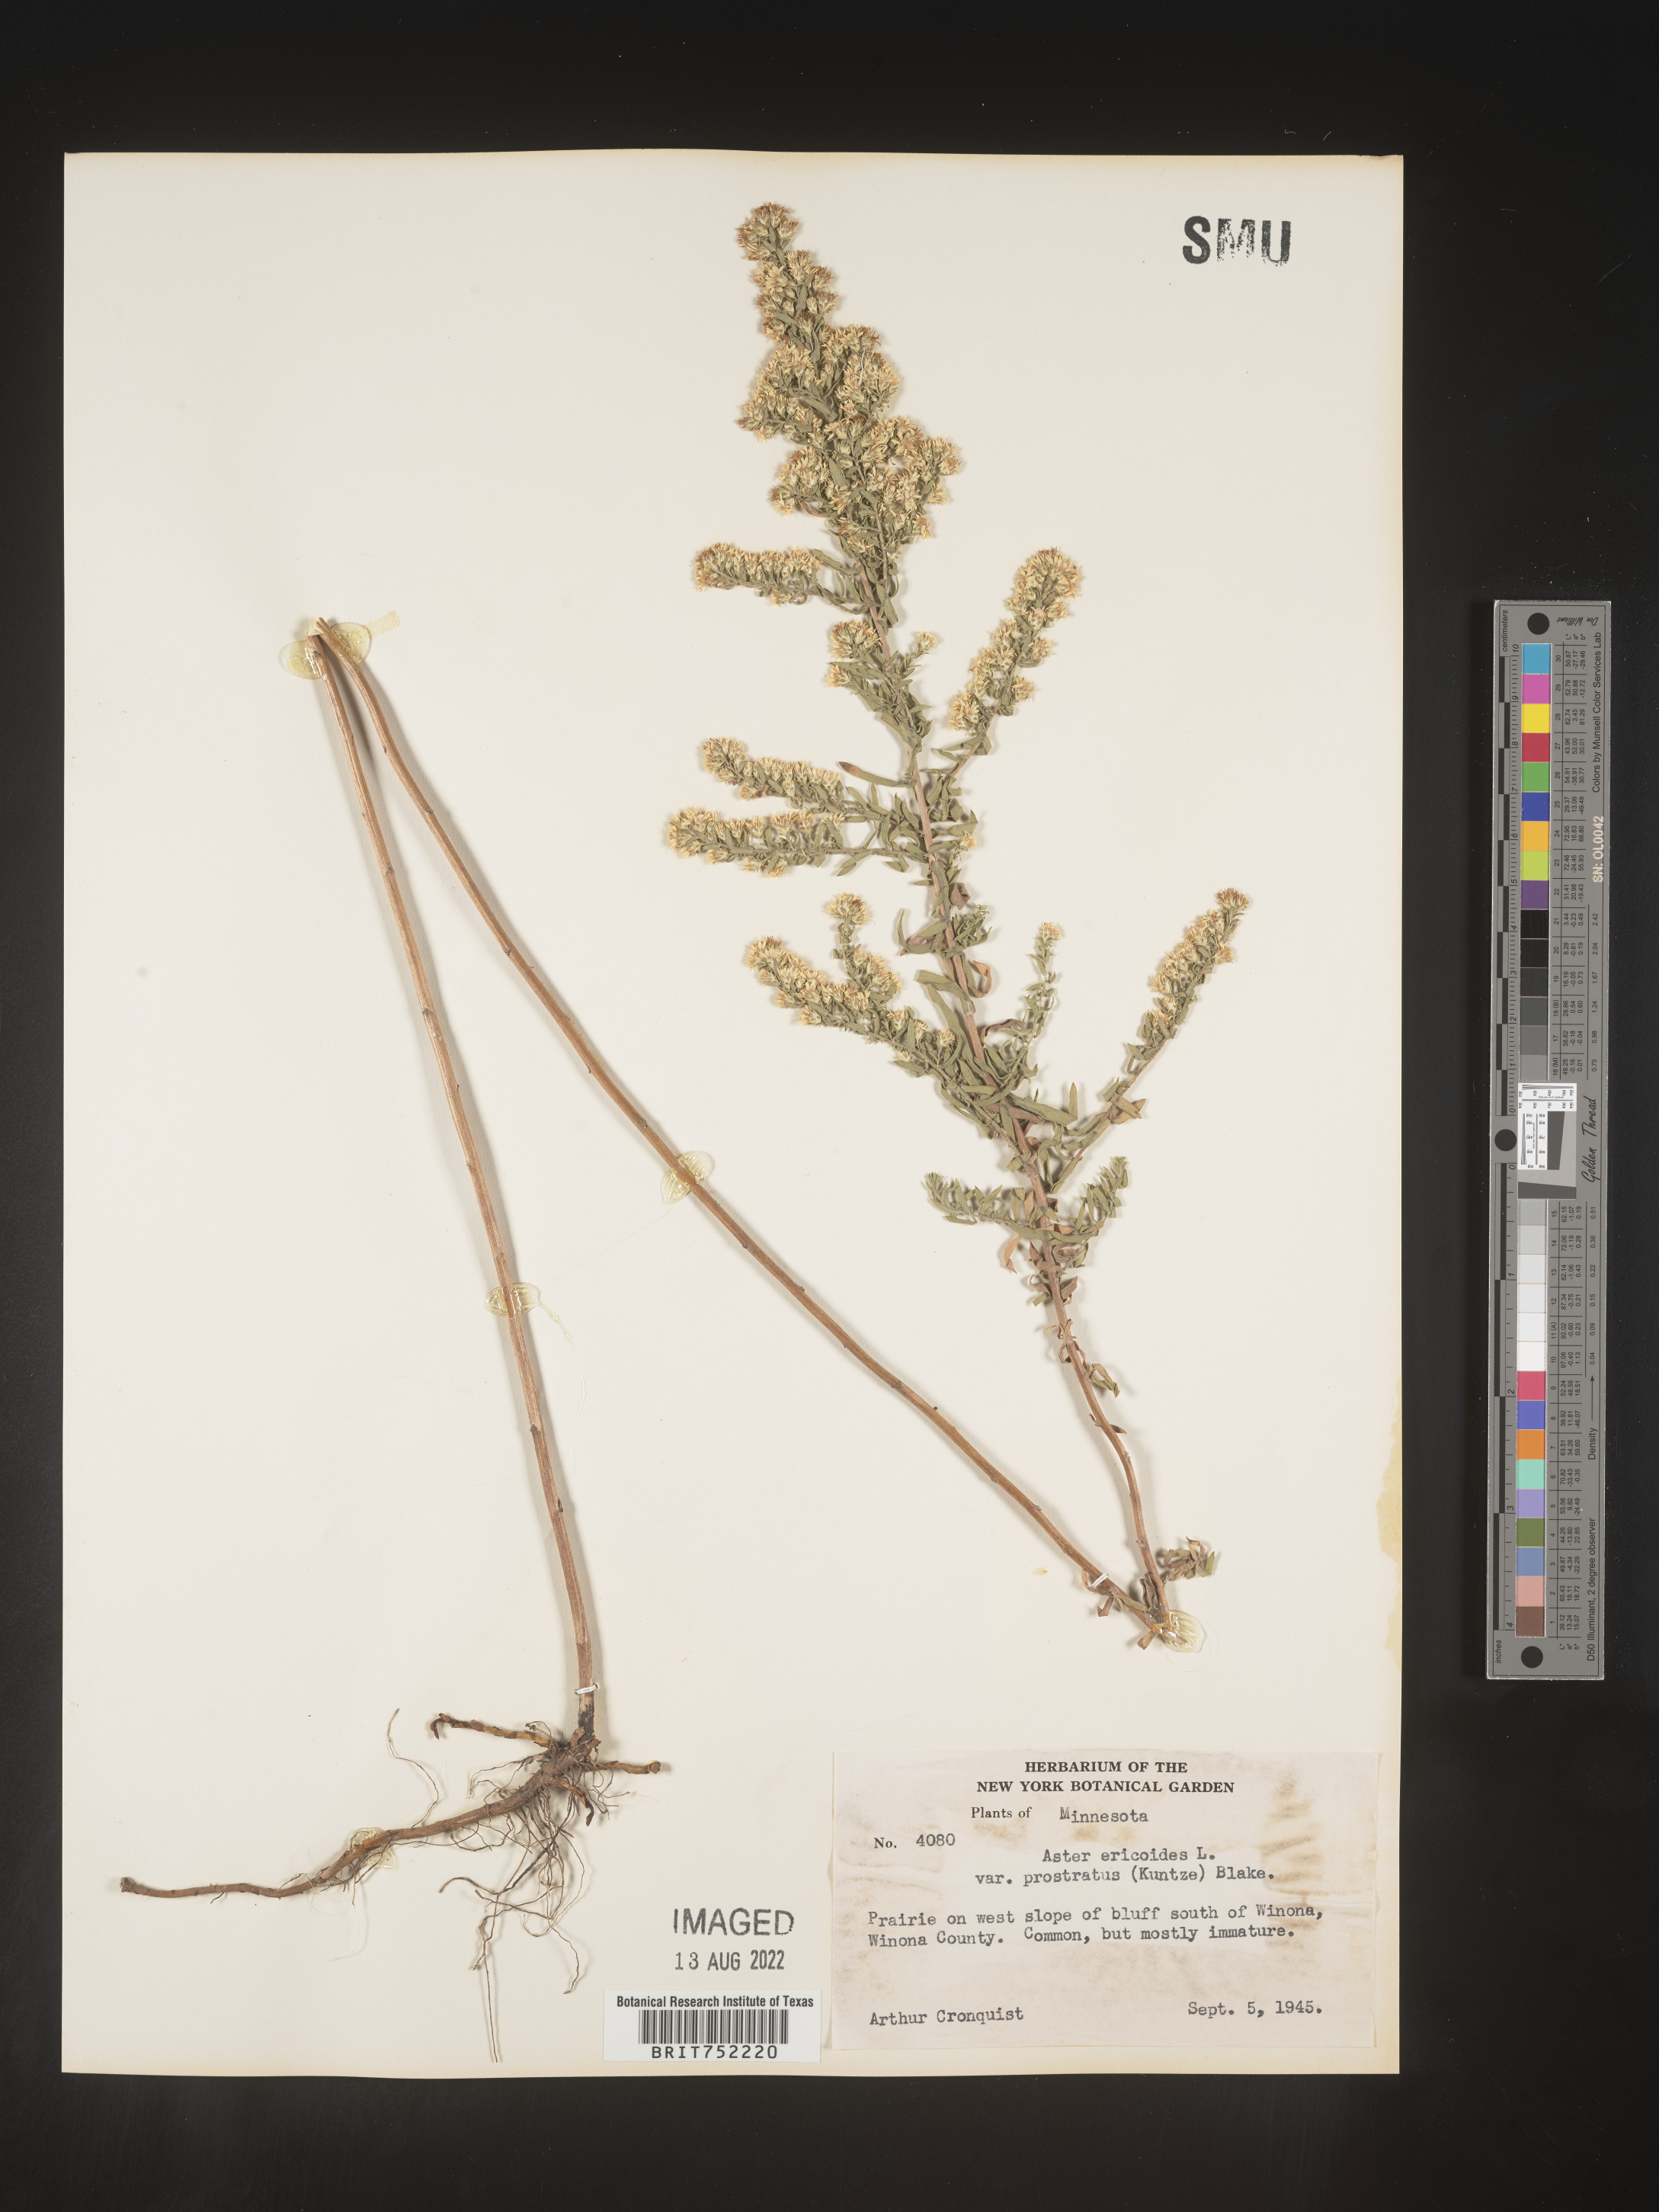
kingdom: Plantae
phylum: Tracheophyta
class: Magnoliopsida
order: Asterales
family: Asteraceae
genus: Symphyotrichum
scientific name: Symphyotrichum ericoides
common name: Heath aster
